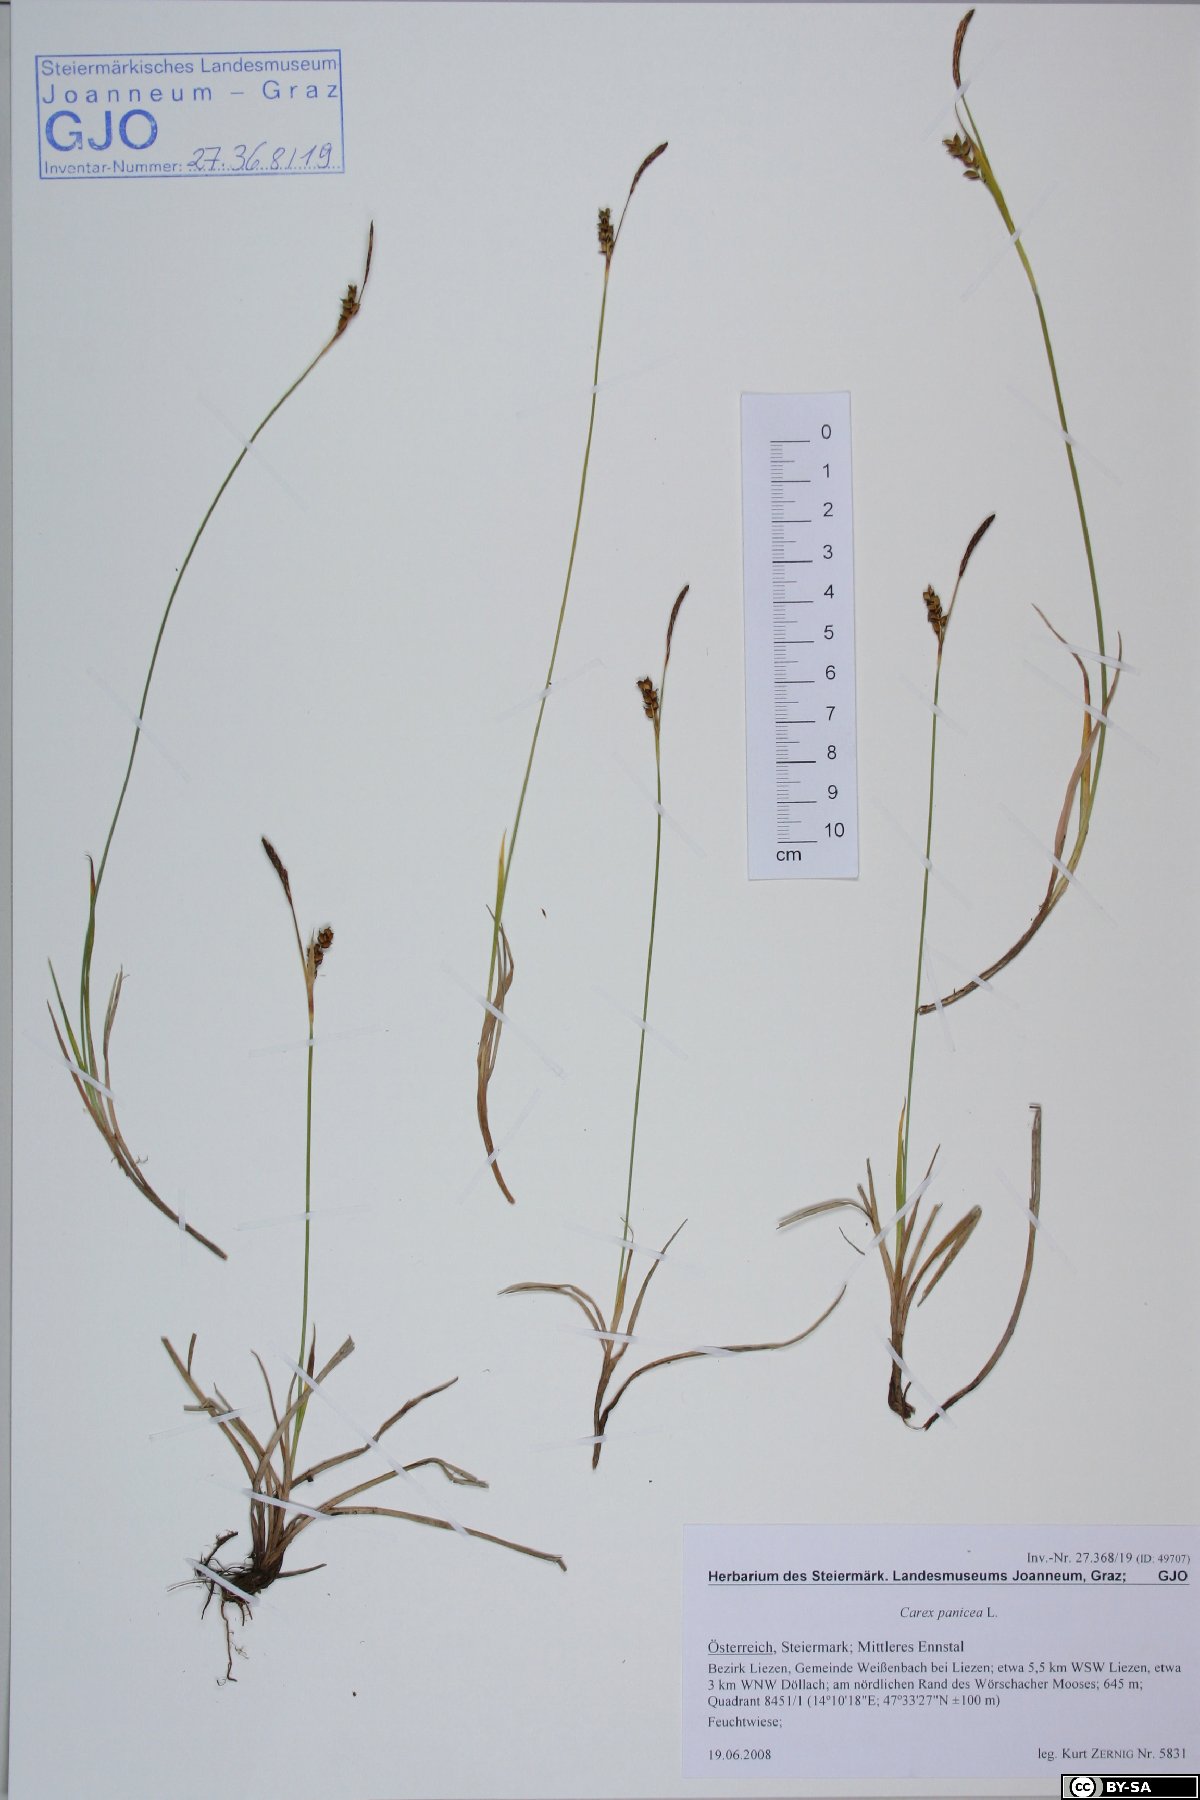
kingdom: Plantae
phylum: Tracheophyta
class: Liliopsida
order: Poales
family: Cyperaceae
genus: Carex
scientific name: Carex panicea
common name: Carnation sedge
